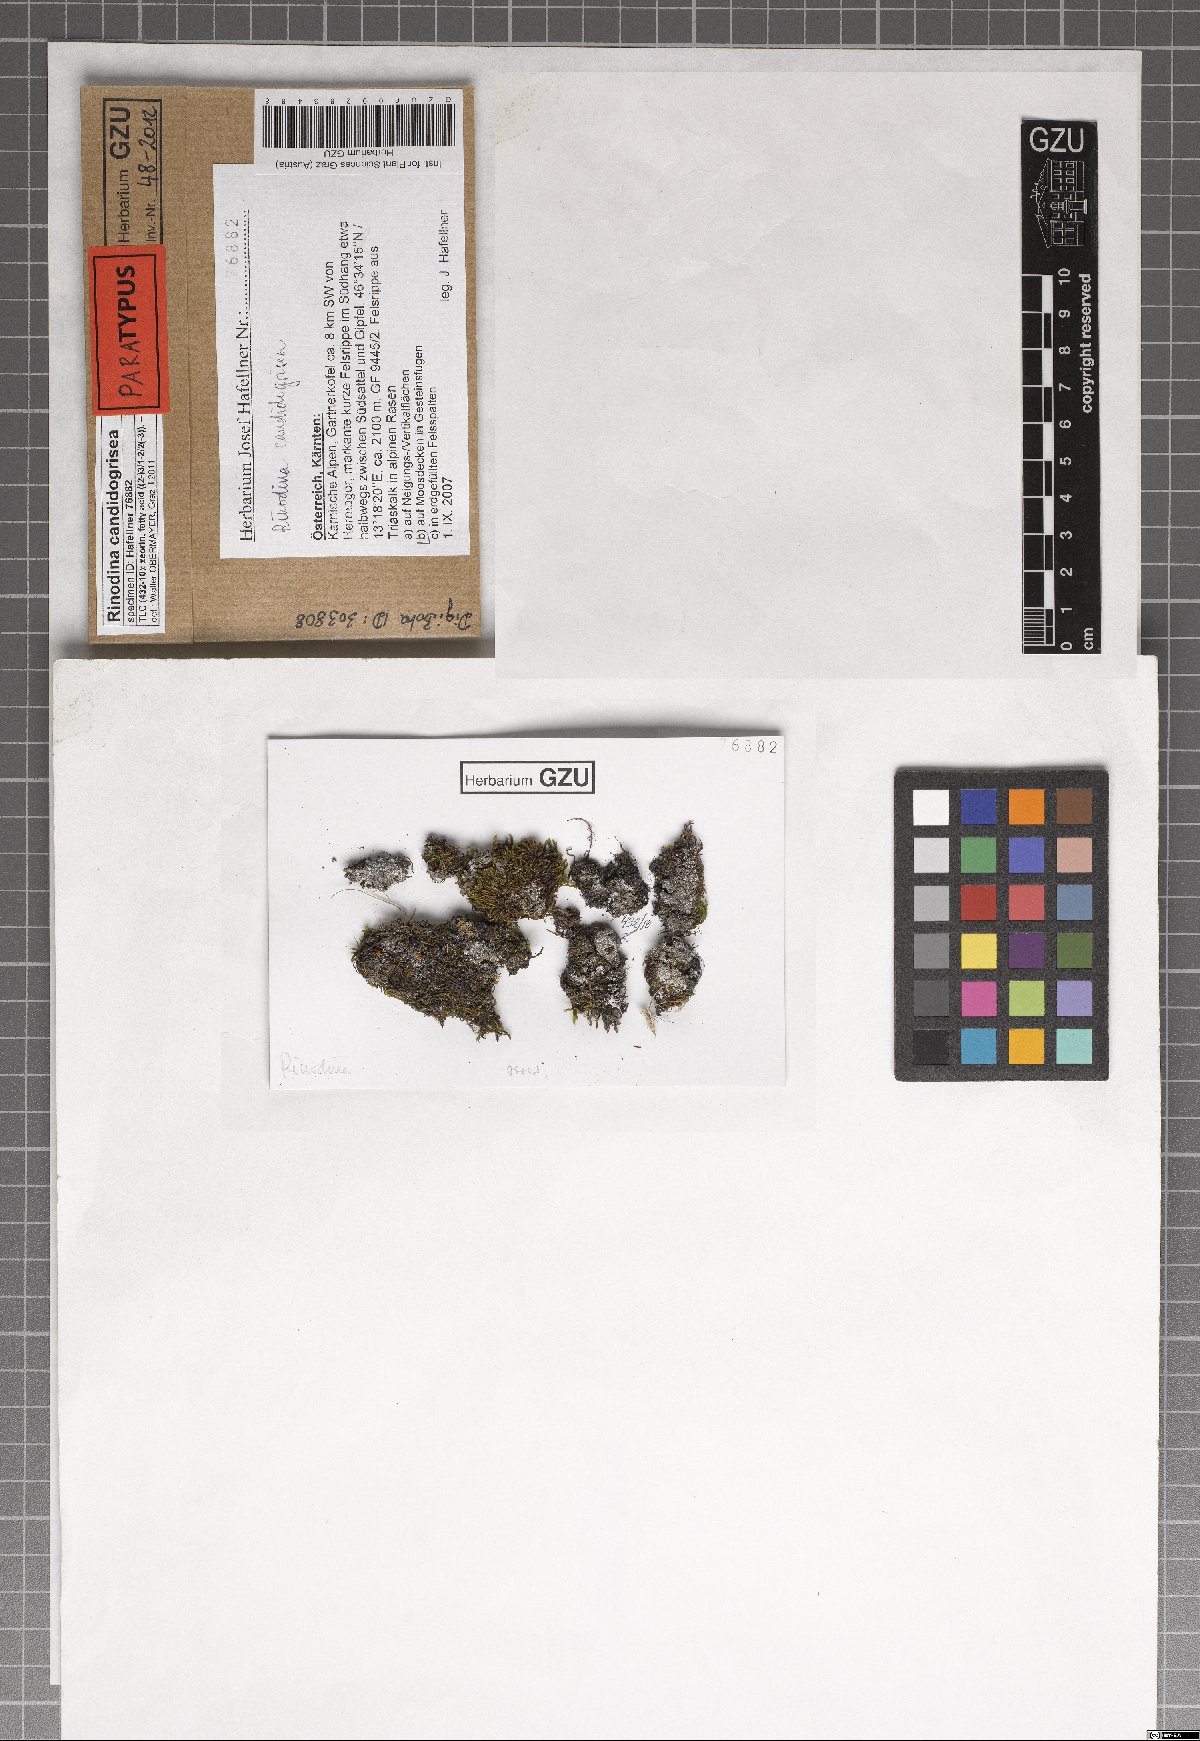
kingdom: Fungi
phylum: Ascomycota
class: Lecanoromycetes
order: Caliciales
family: Physciaceae
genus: Kudratovia
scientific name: Kudratovia candidogrisea
